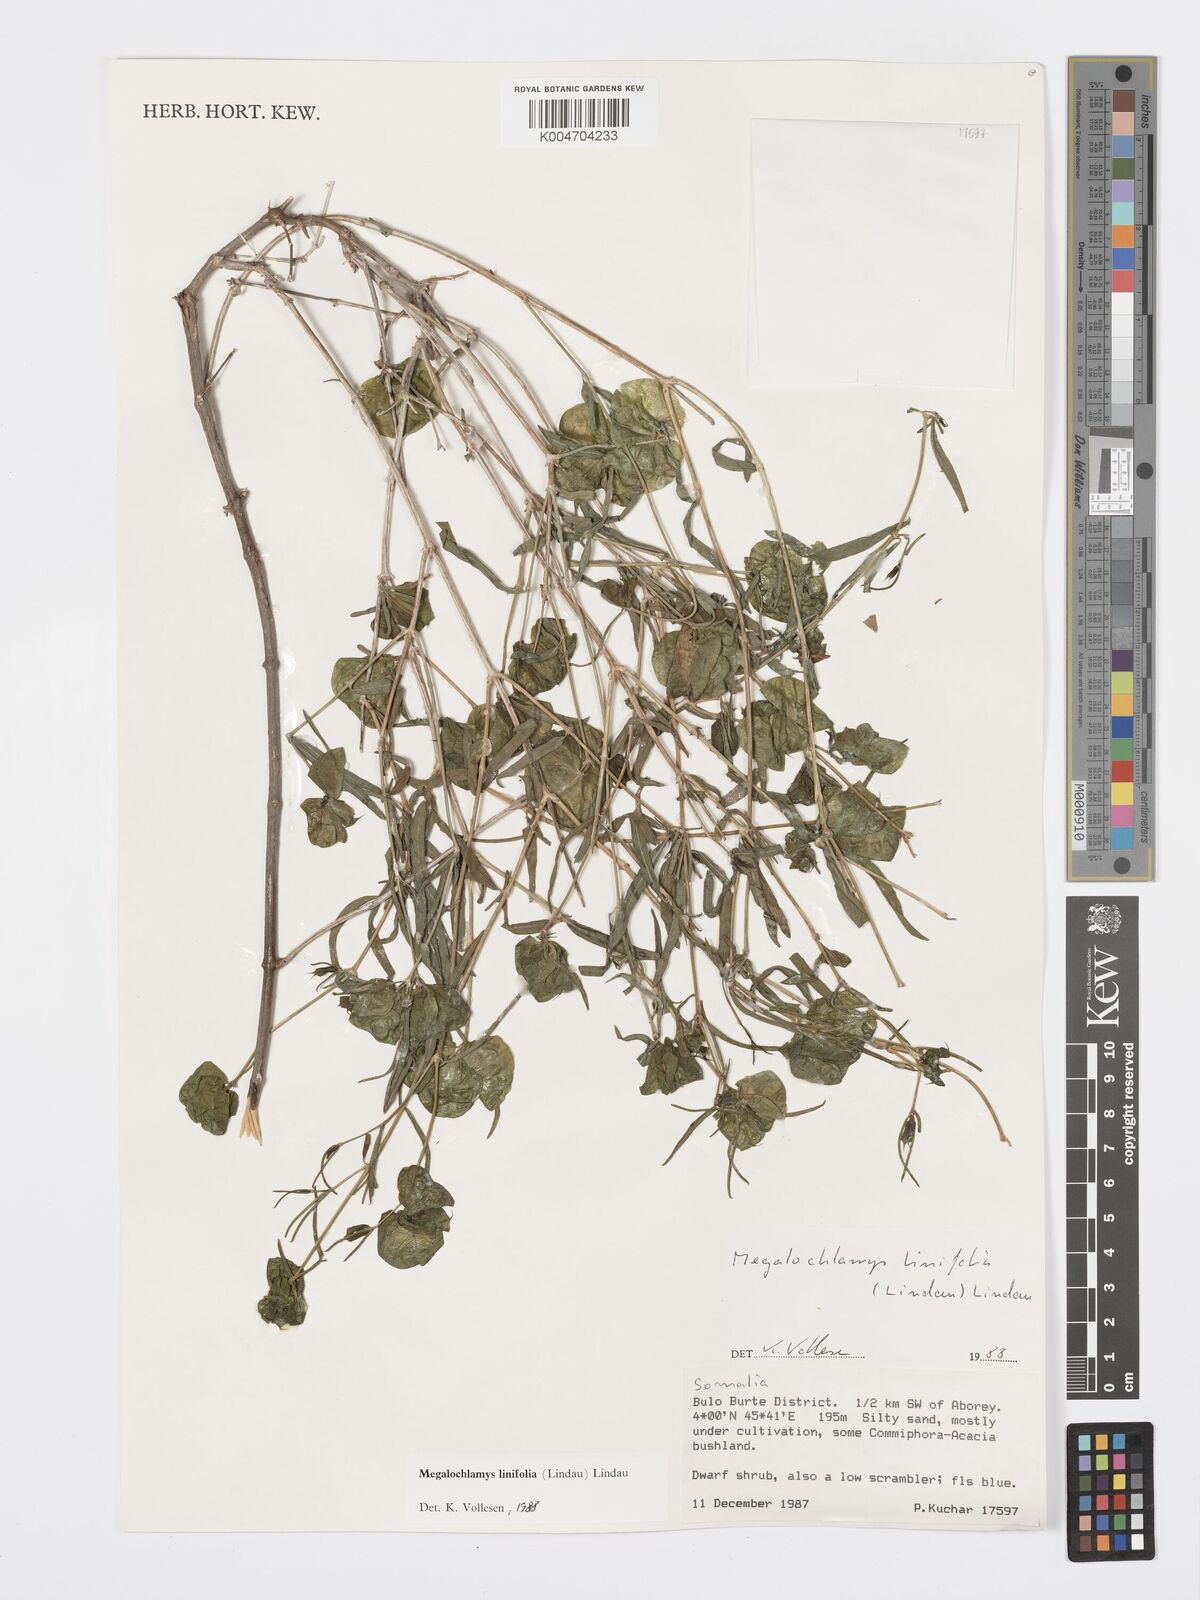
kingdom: Plantae
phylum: Tracheophyta
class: Magnoliopsida
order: Lamiales
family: Acanthaceae
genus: Megalochlamys
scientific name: Megalochlamys linifolia
